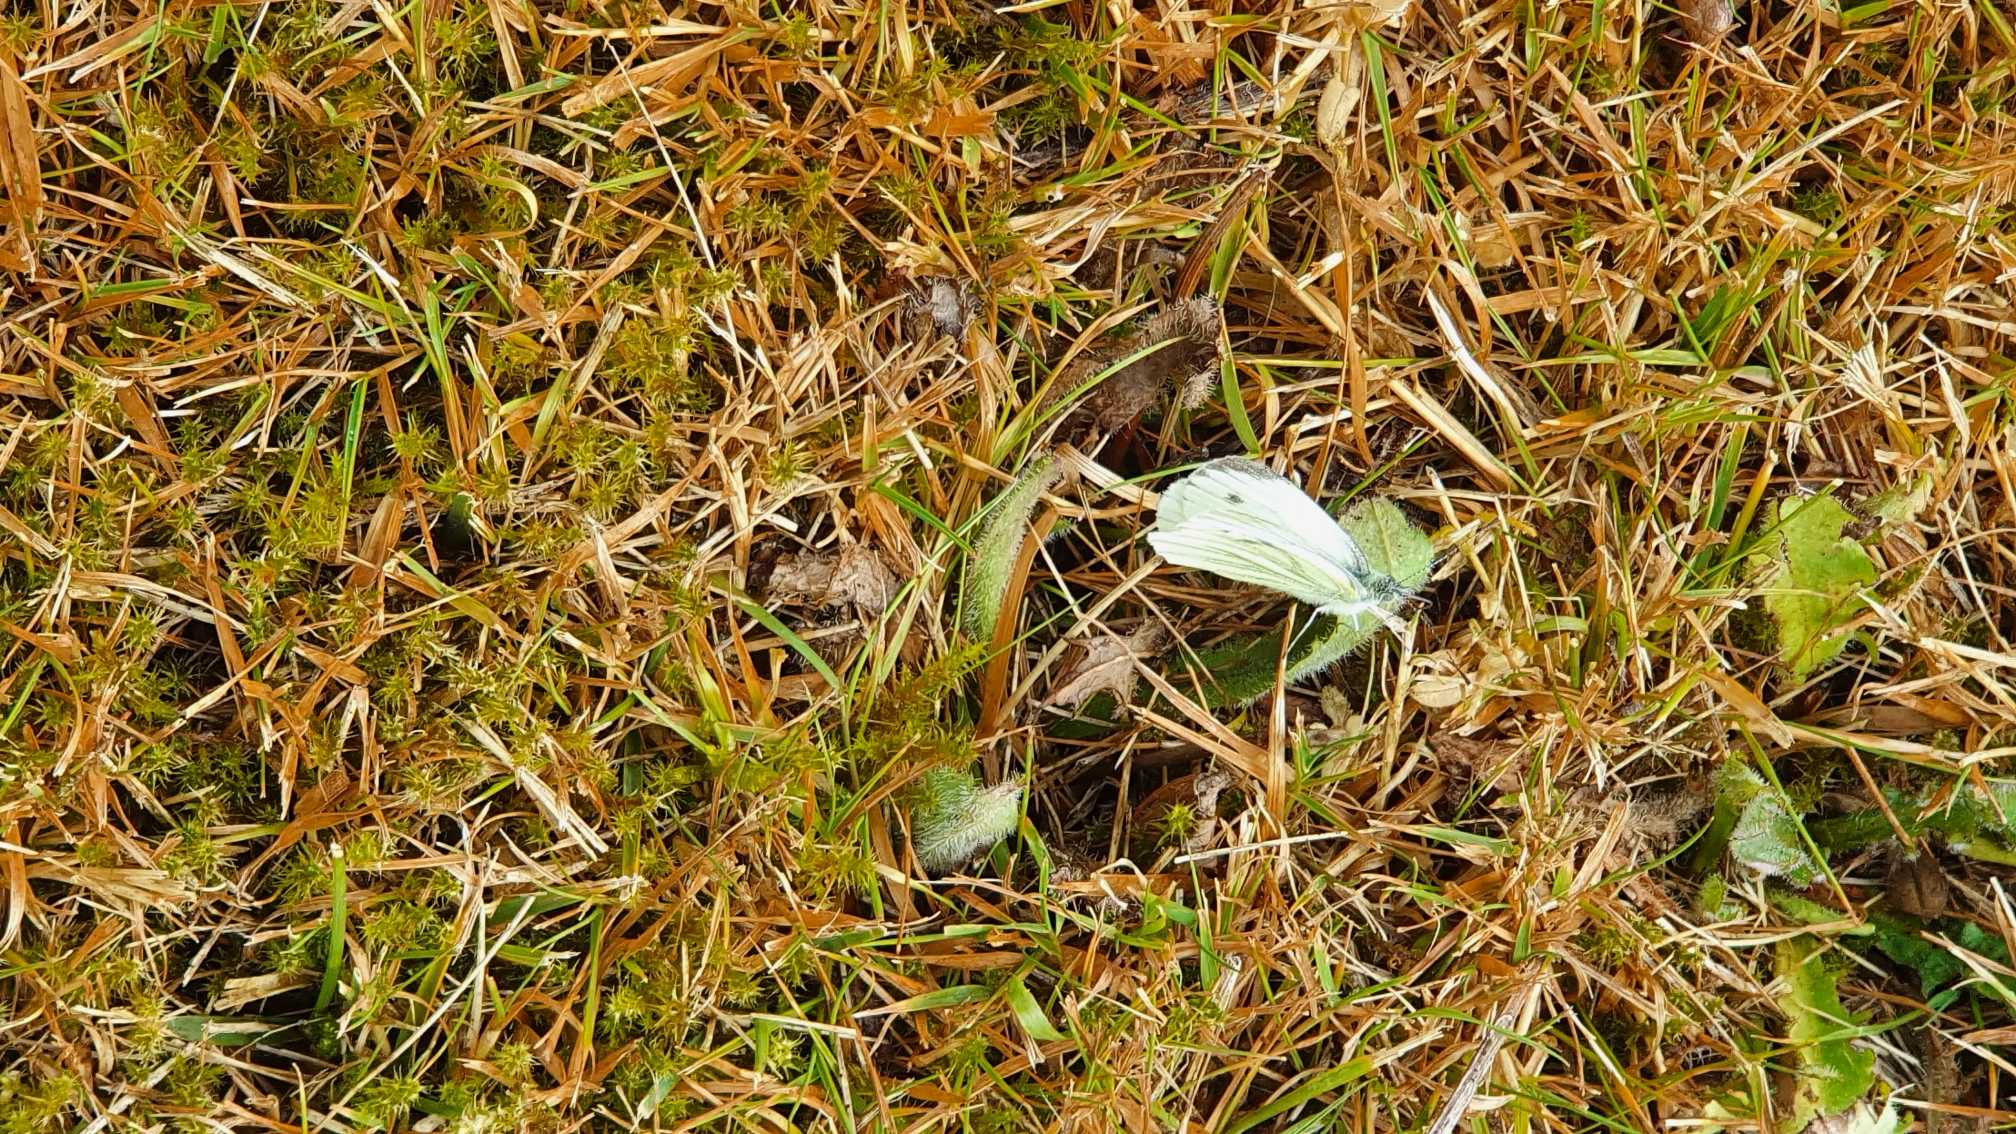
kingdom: Animalia
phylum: Arthropoda
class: Insecta
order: Lepidoptera
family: Pieridae
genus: Pieris
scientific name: Pieris napi
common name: Grønåret kålsommerfugl
